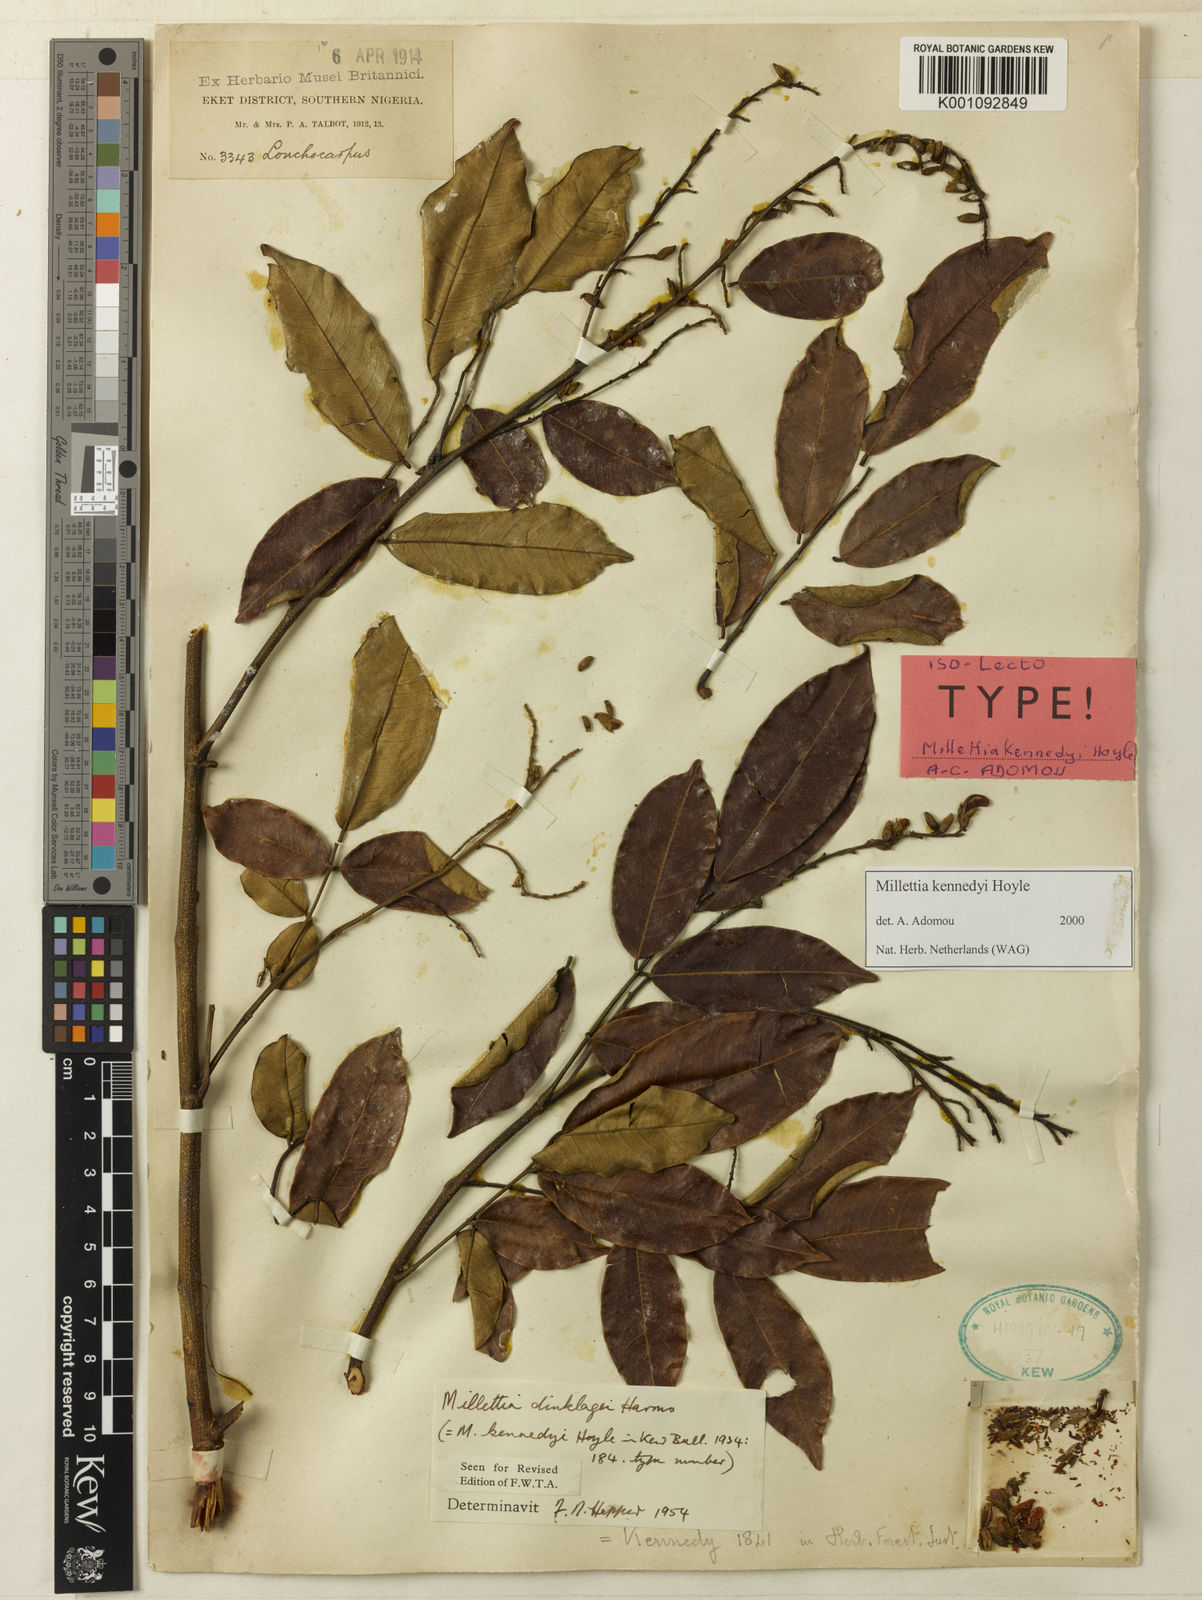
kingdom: Plantae
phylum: Tracheophyta
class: Magnoliopsida
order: Fabales
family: Fabaceae
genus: Millettia
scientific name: Millettia kennedyi
